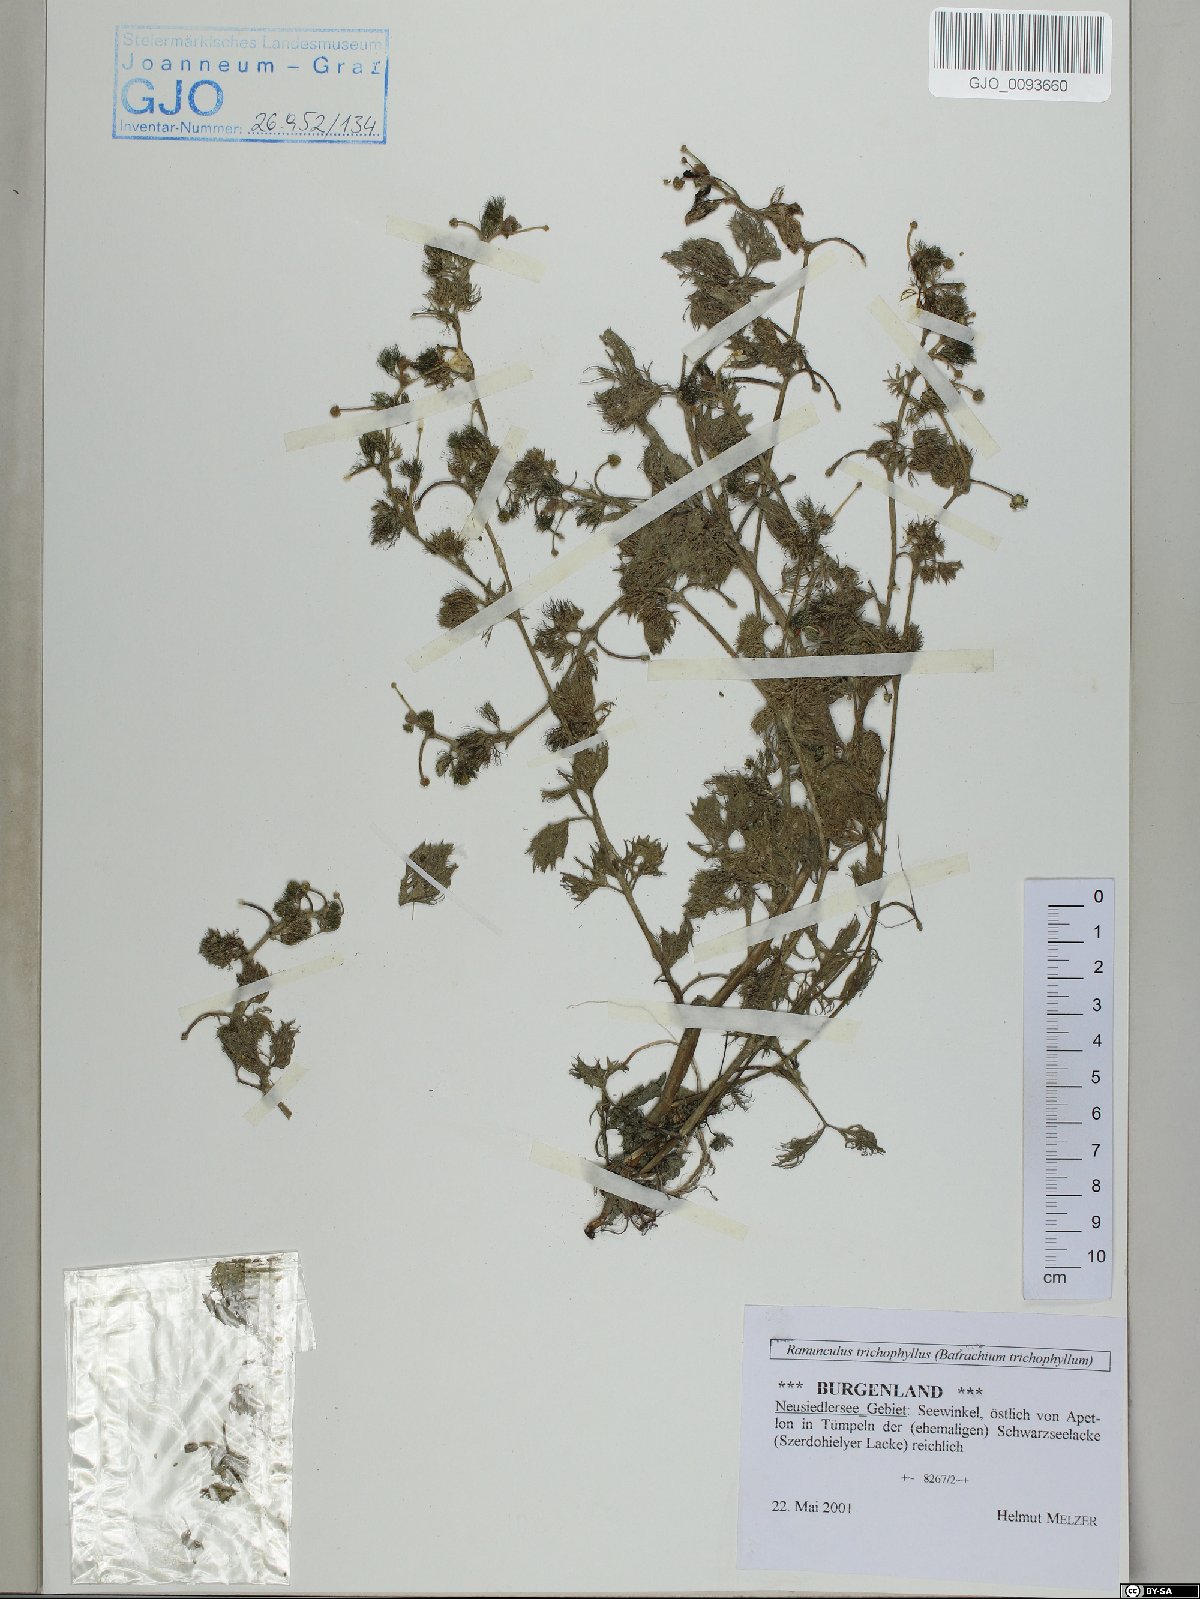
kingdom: Plantae
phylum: Tracheophyta
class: Magnoliopsida
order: Ranunculales
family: Ranunculaceae
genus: Ranunculus
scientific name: Ranunculus trichophyllus
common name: Thread-leaved water-crowfoot
